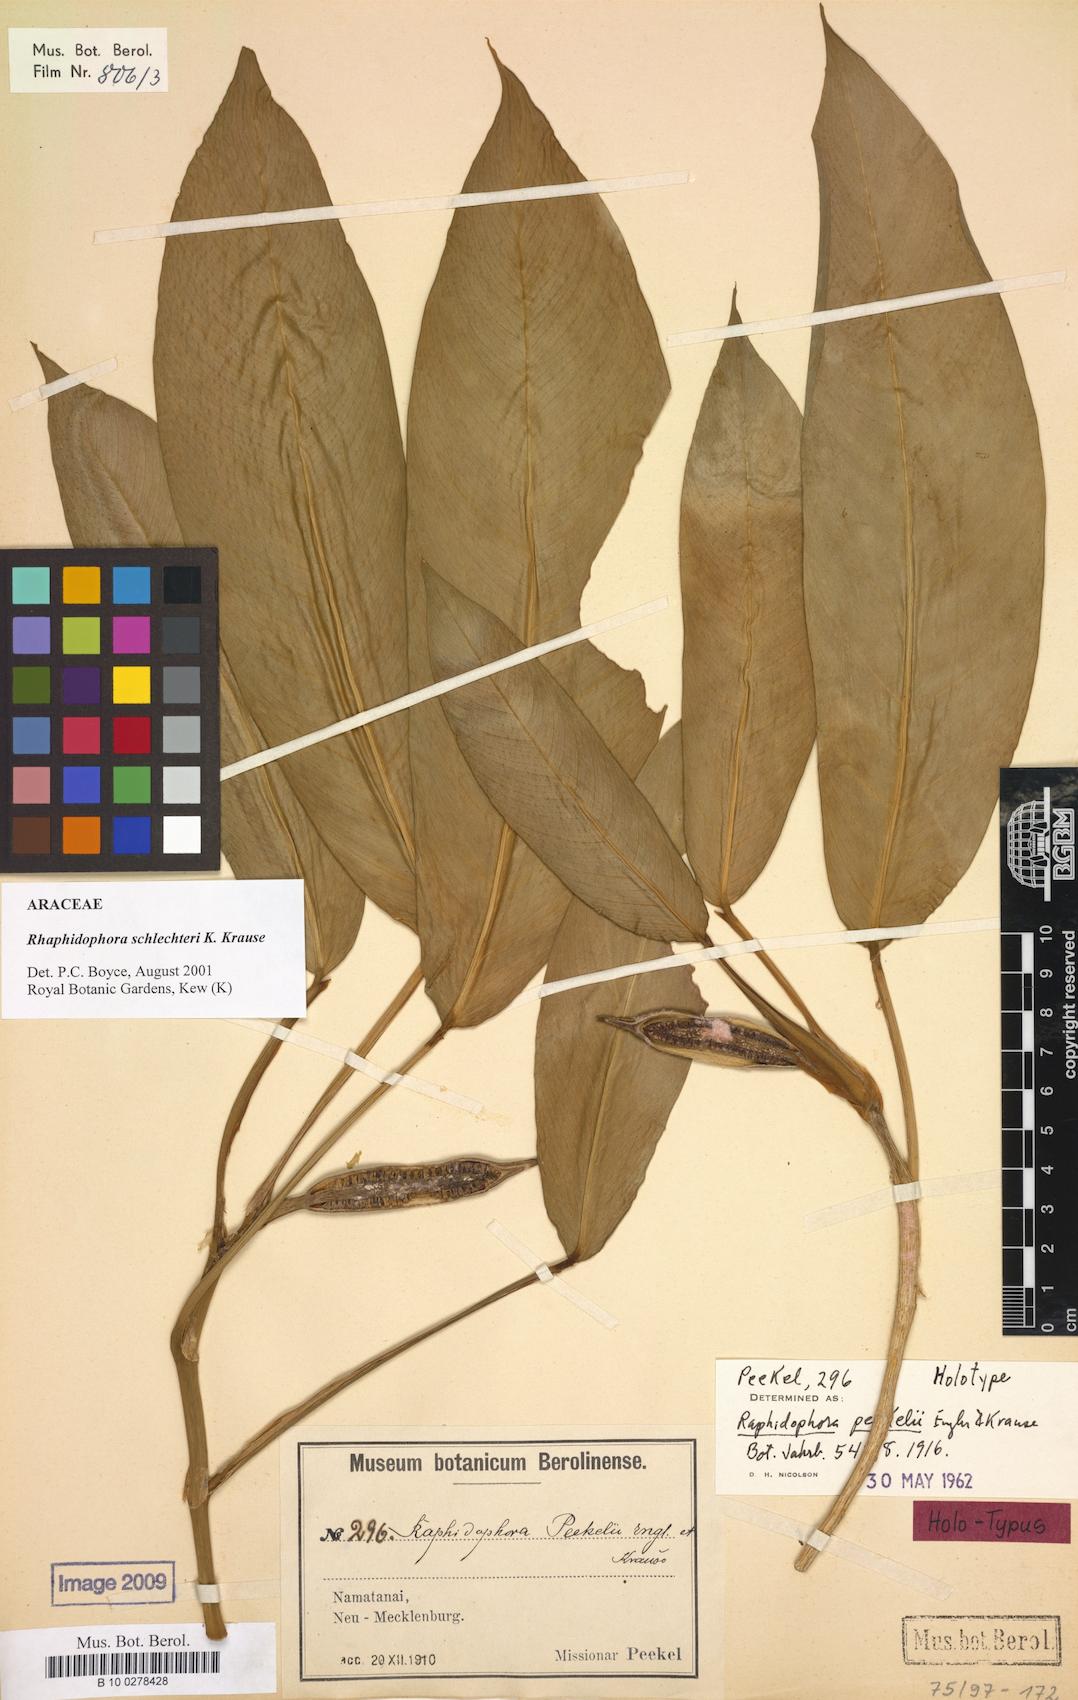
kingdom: Plantae
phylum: Tracheophyta
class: Liliopsida
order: Alismatales
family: Araceae
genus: Rhaphidophora
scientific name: Rhaphidophora schlechteri
